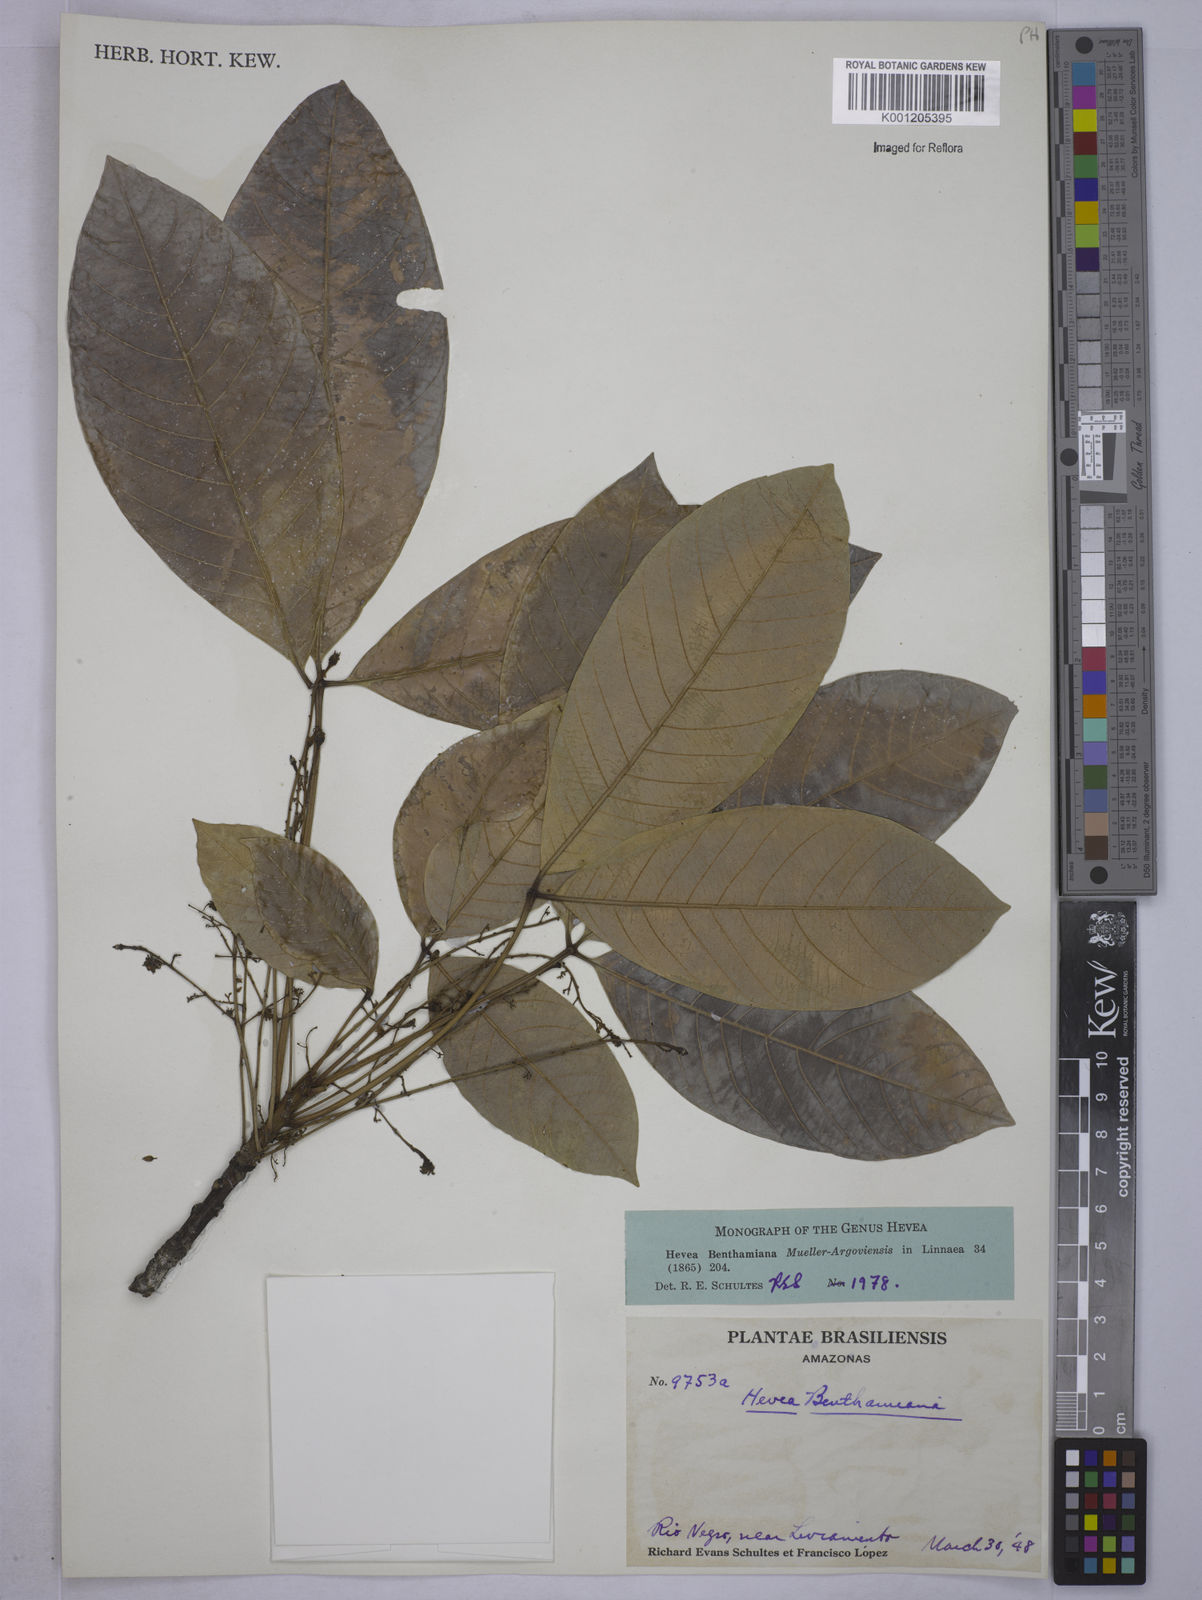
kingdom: Plantae
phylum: Tracheophyta
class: Magnoliopsida
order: Malpighiales
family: Euphorbiaceae
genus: Hevea
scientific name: Hevea
